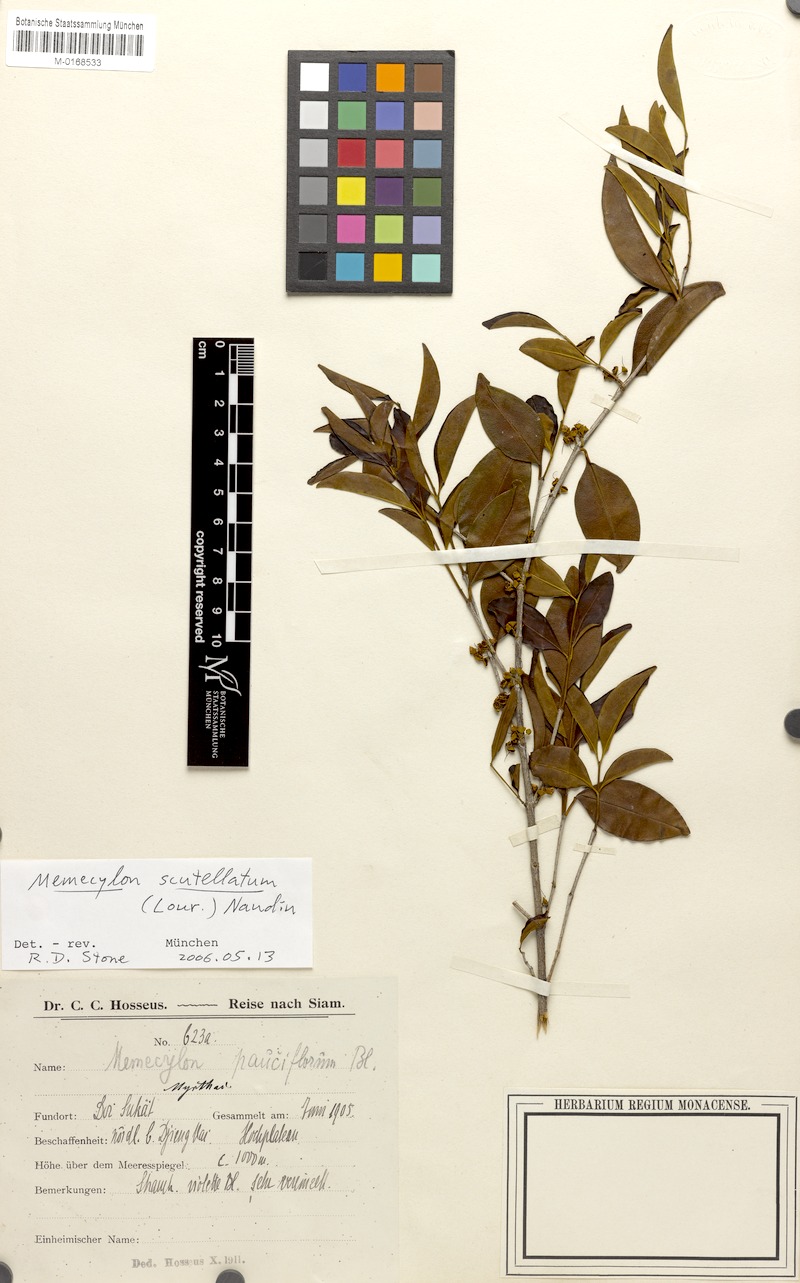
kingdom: Plantae
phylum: Tracheophyta
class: Magnoliopsida
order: Myrtales
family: Melastomataceae
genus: Memecylon
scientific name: Memecylon scutellatum
